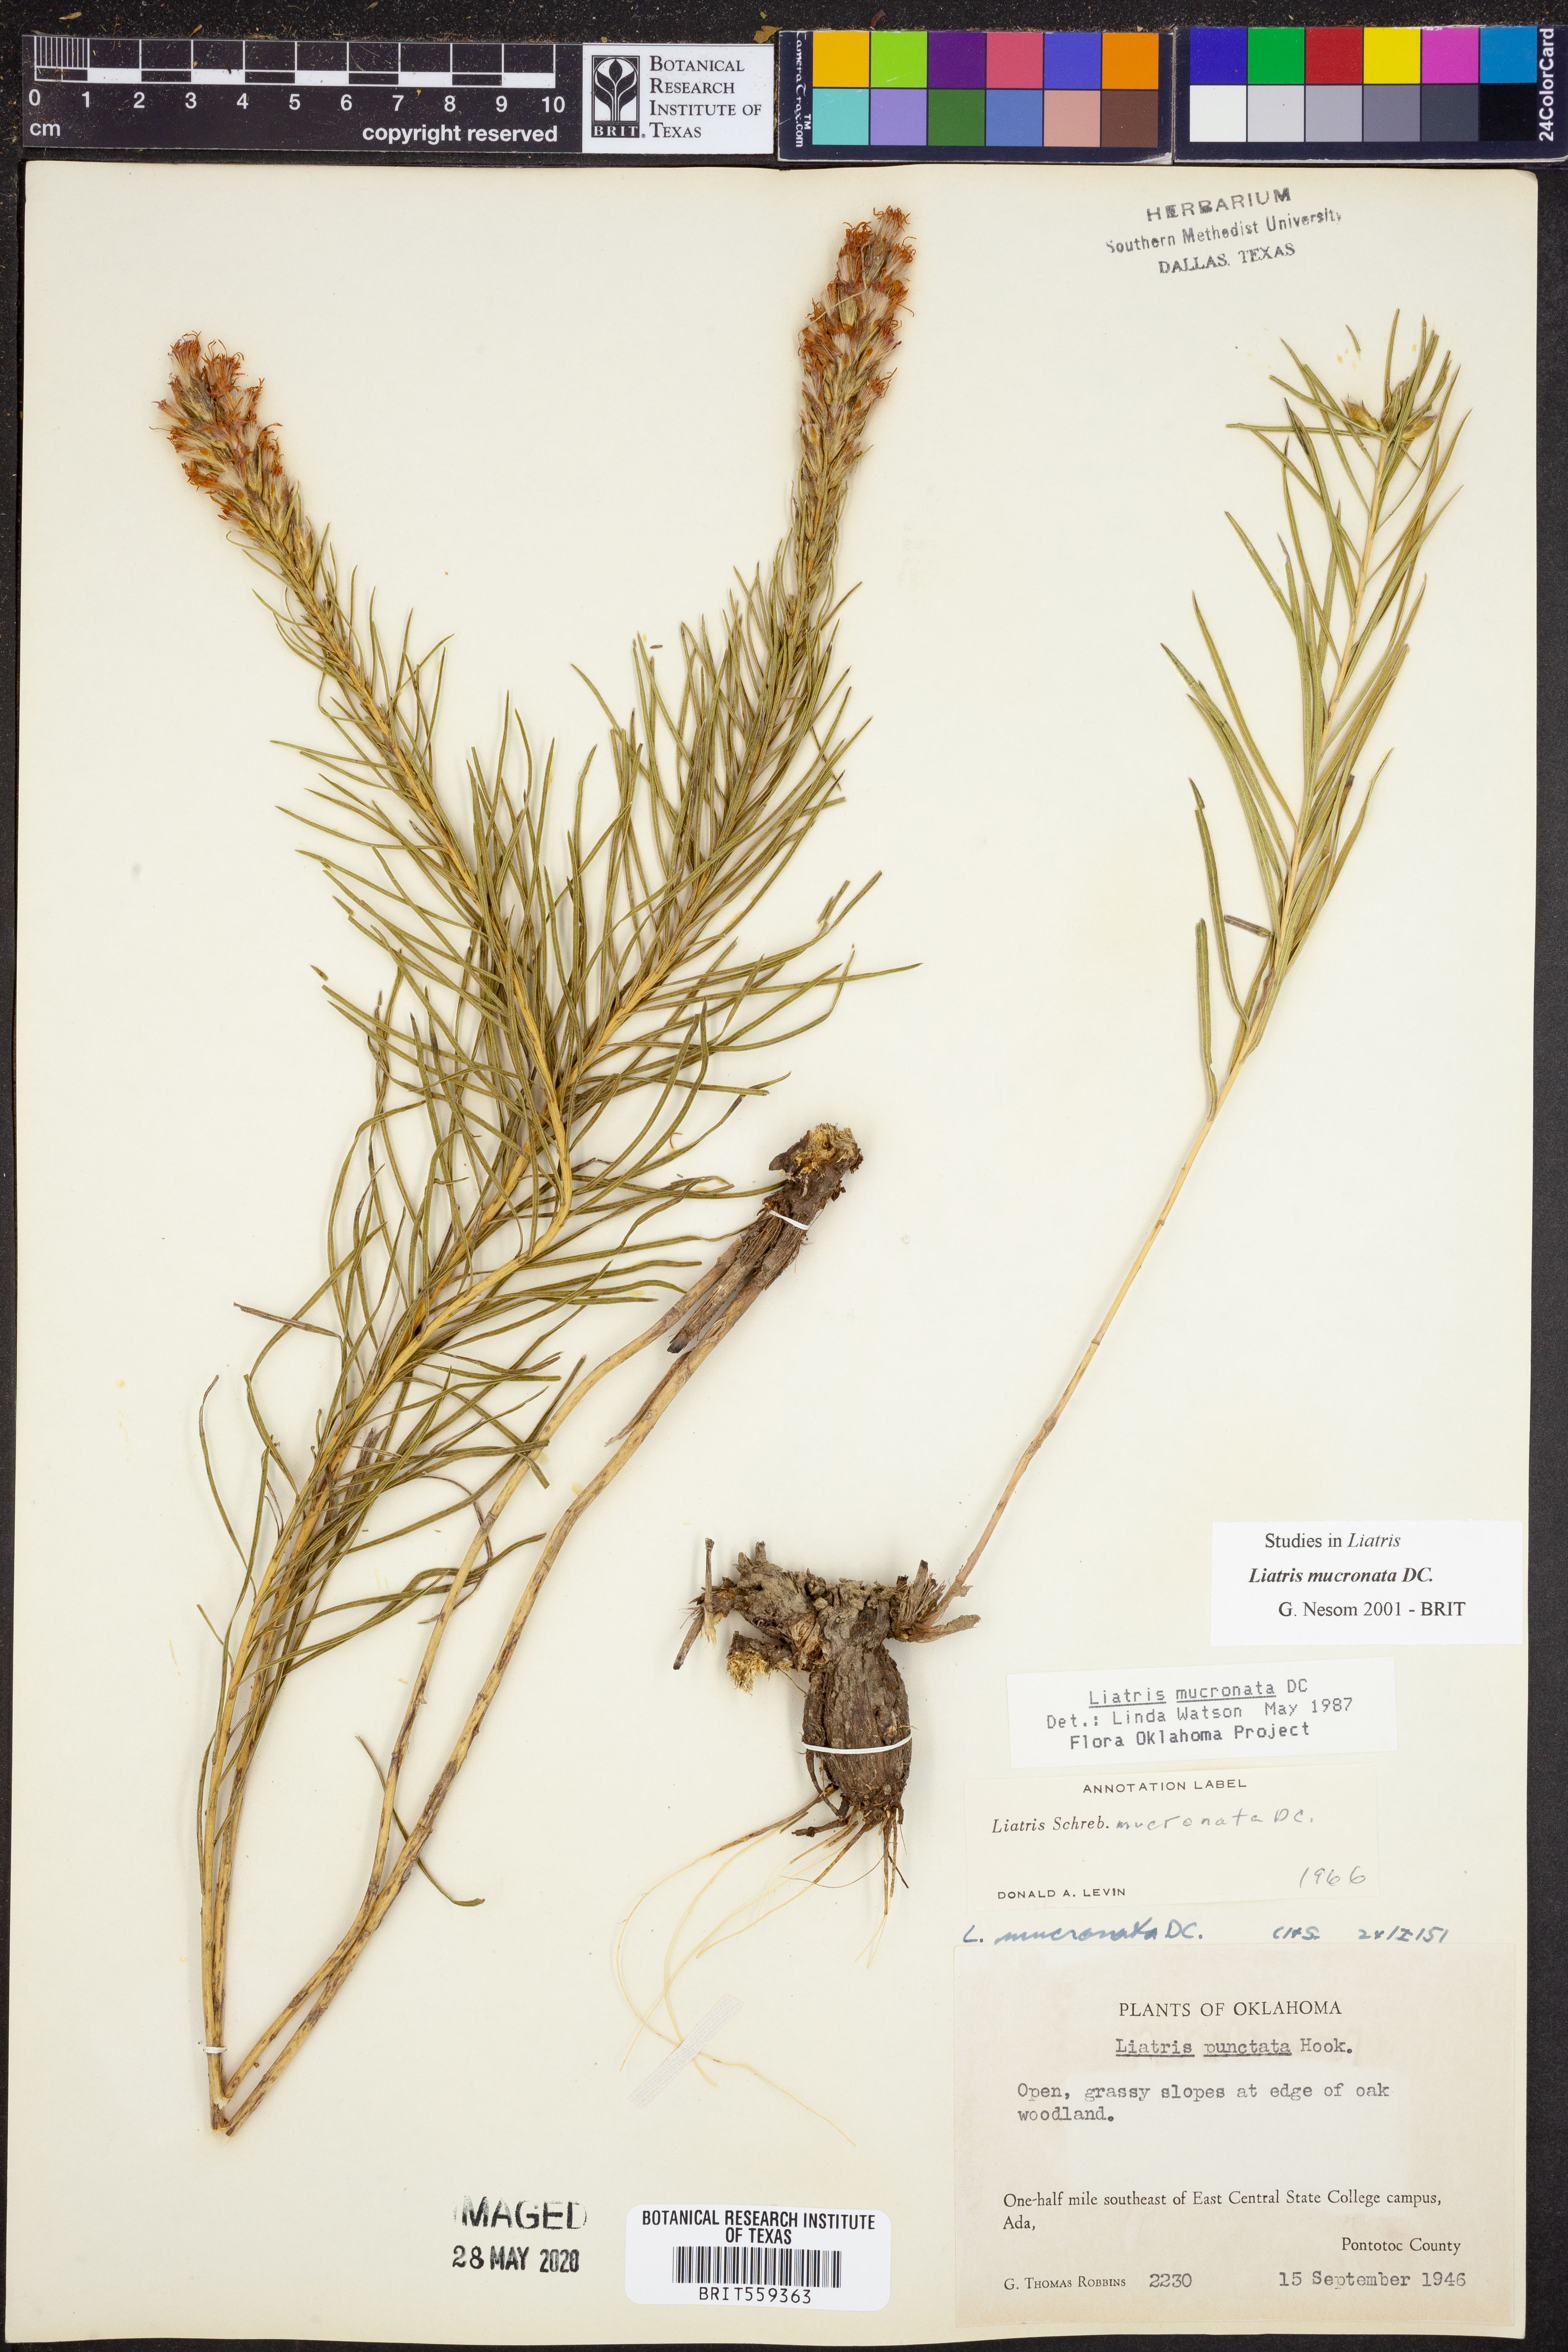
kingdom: Plantae
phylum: Tracheophyta
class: Magnoliopsida
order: Asterales
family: Asteraceae
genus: Liatris
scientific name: Liatris mucronata
